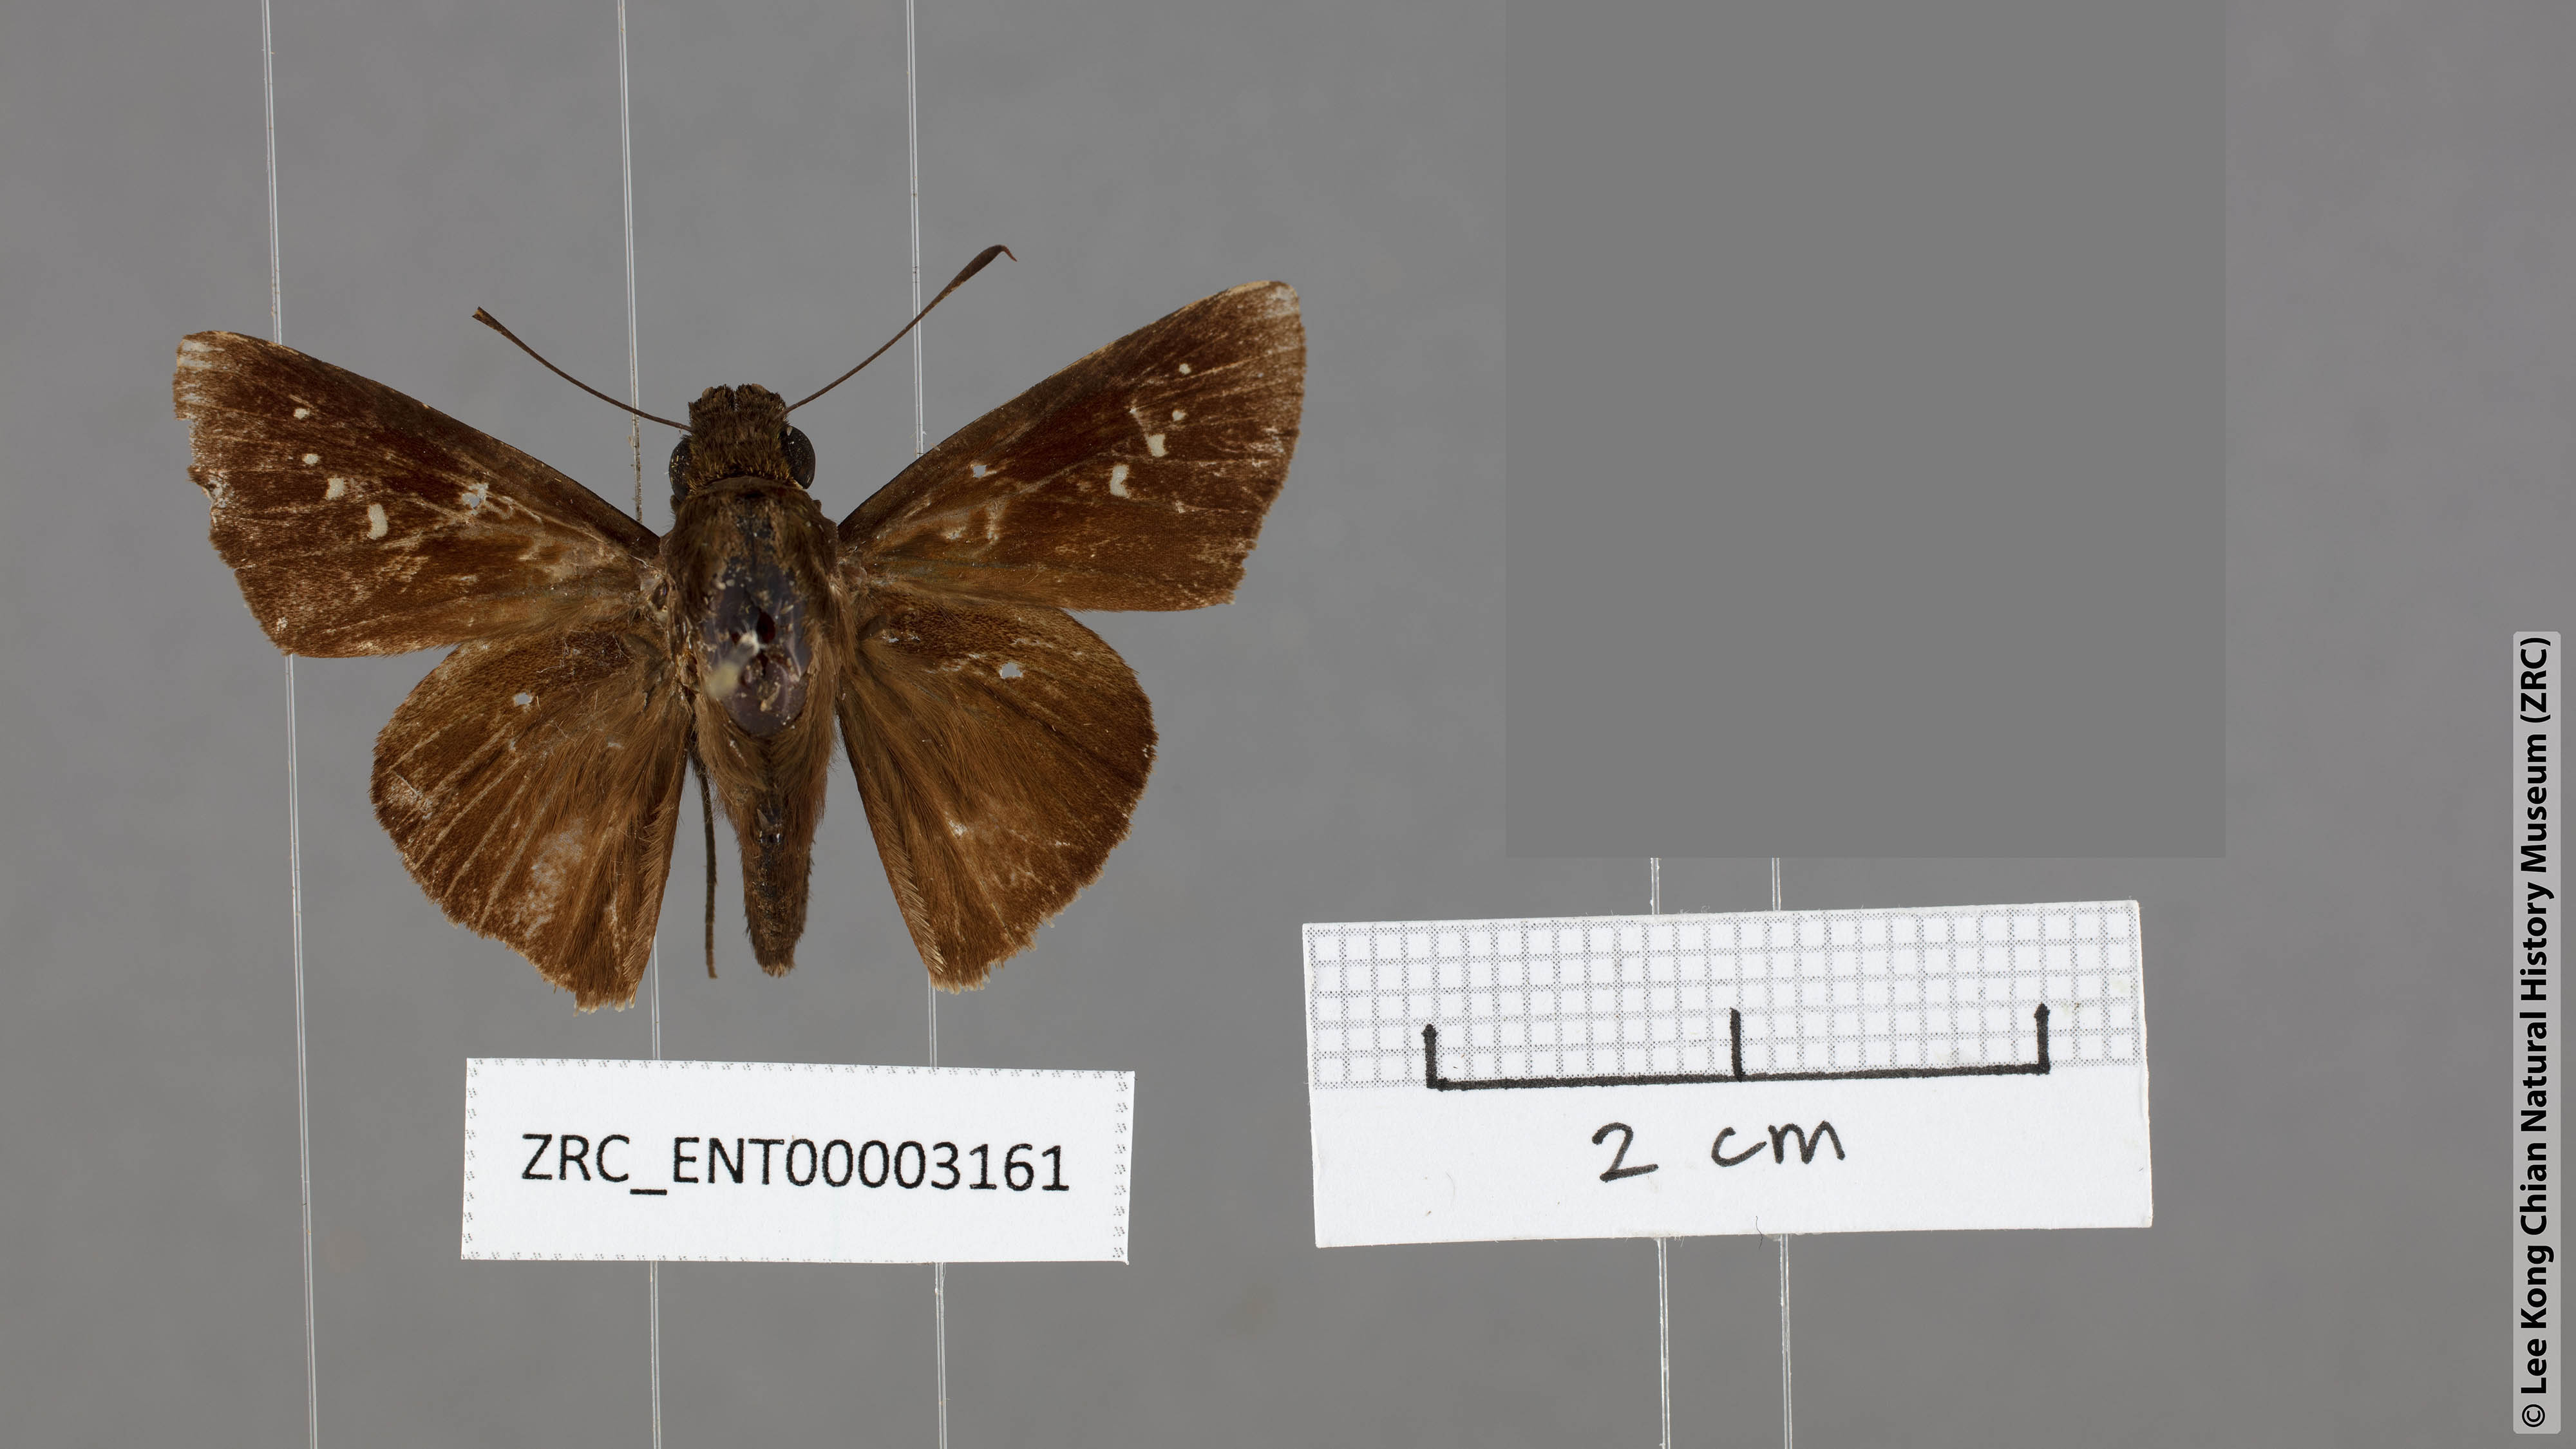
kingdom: Animalia
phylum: Arthropoda
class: Insecta
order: Lepidoptera
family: Hesperiidae
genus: Caltoris
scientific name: Caltoris plebeia
